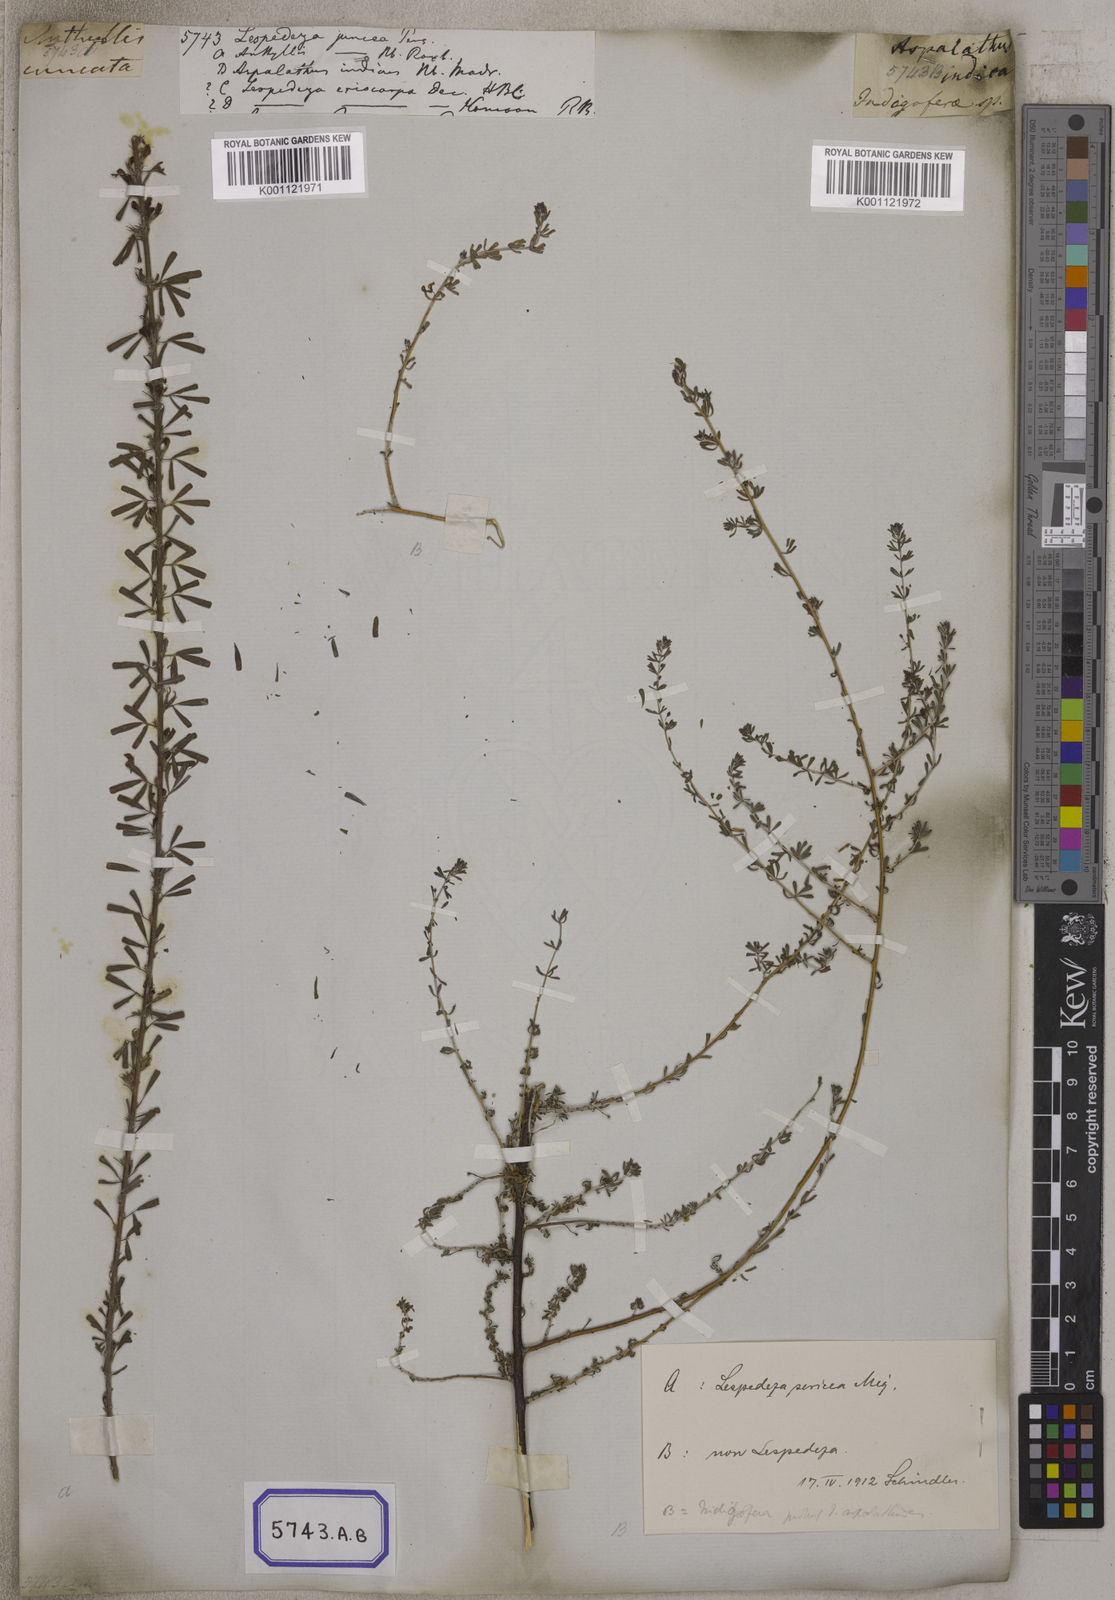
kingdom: Plantae
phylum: Tracheophyta
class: Magnoliopsida
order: Fabales
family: Fabaceae
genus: Indigofera
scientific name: Indigofera aspalathoides
